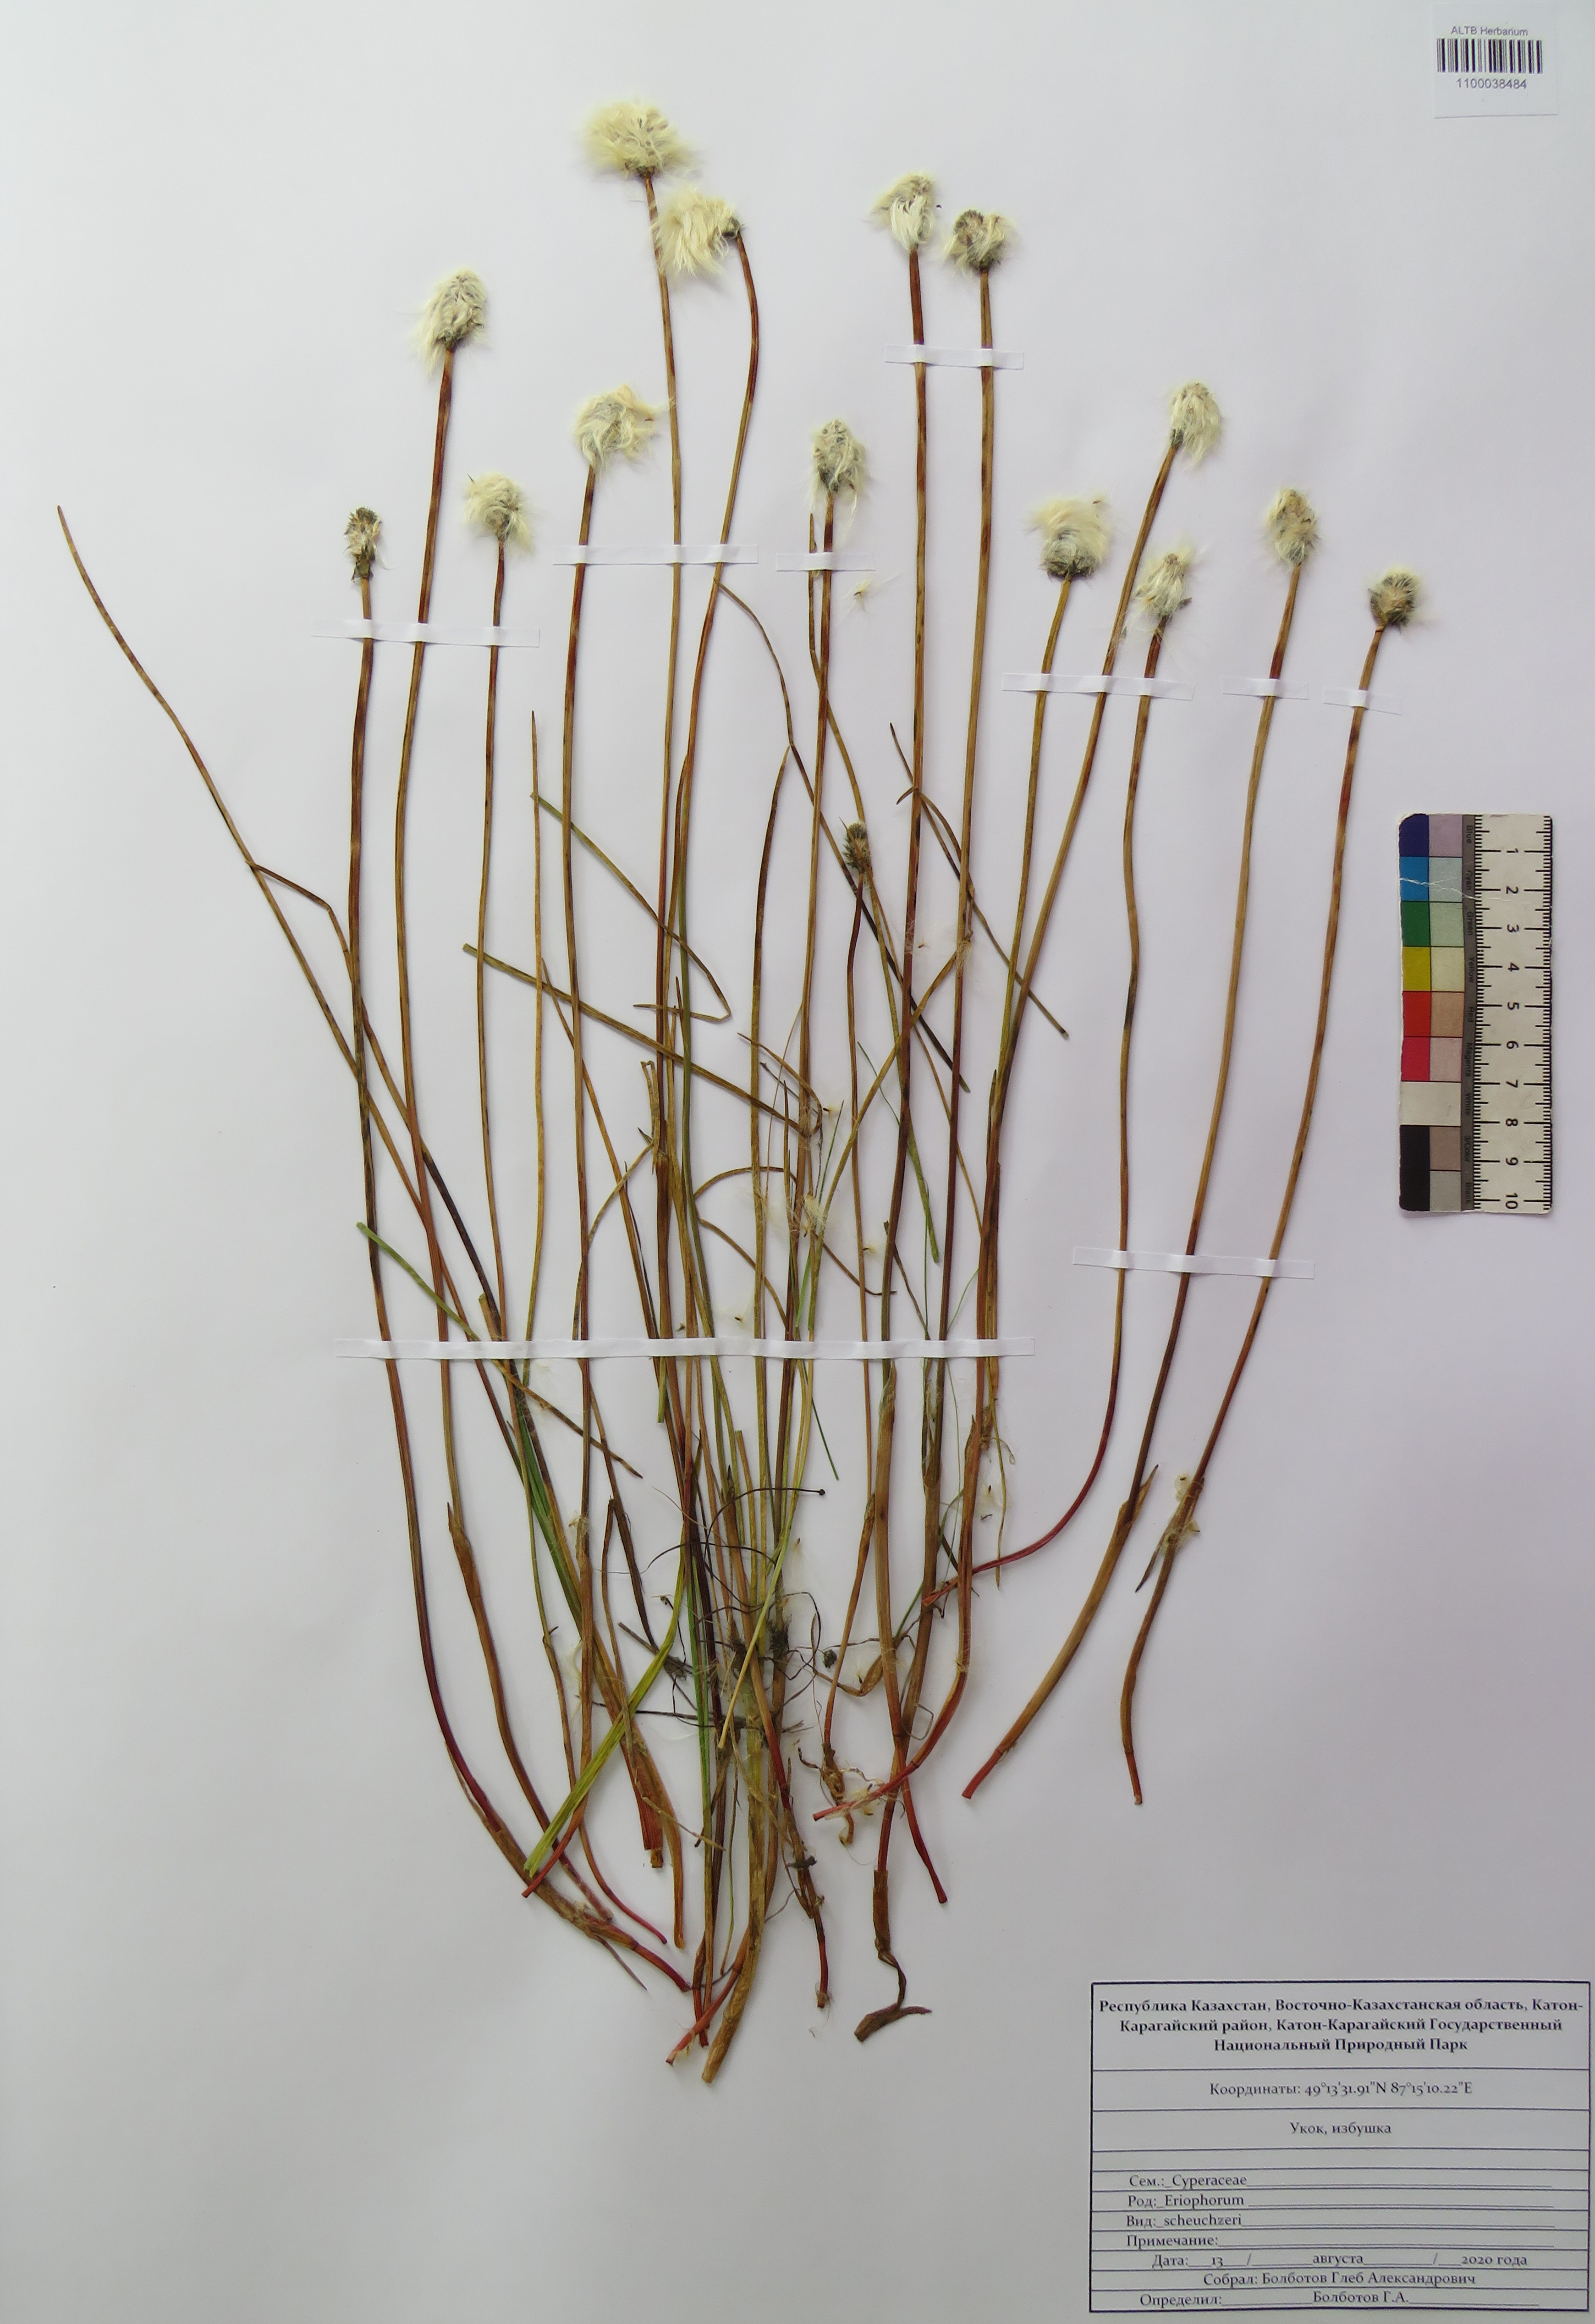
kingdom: Plantae
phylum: Tracheophyta
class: Liliopsida
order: Poales
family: Cyperaceae
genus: Eriophorum
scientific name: Eriophorum scheuchzeri
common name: Scheuchzer's cottongrass
